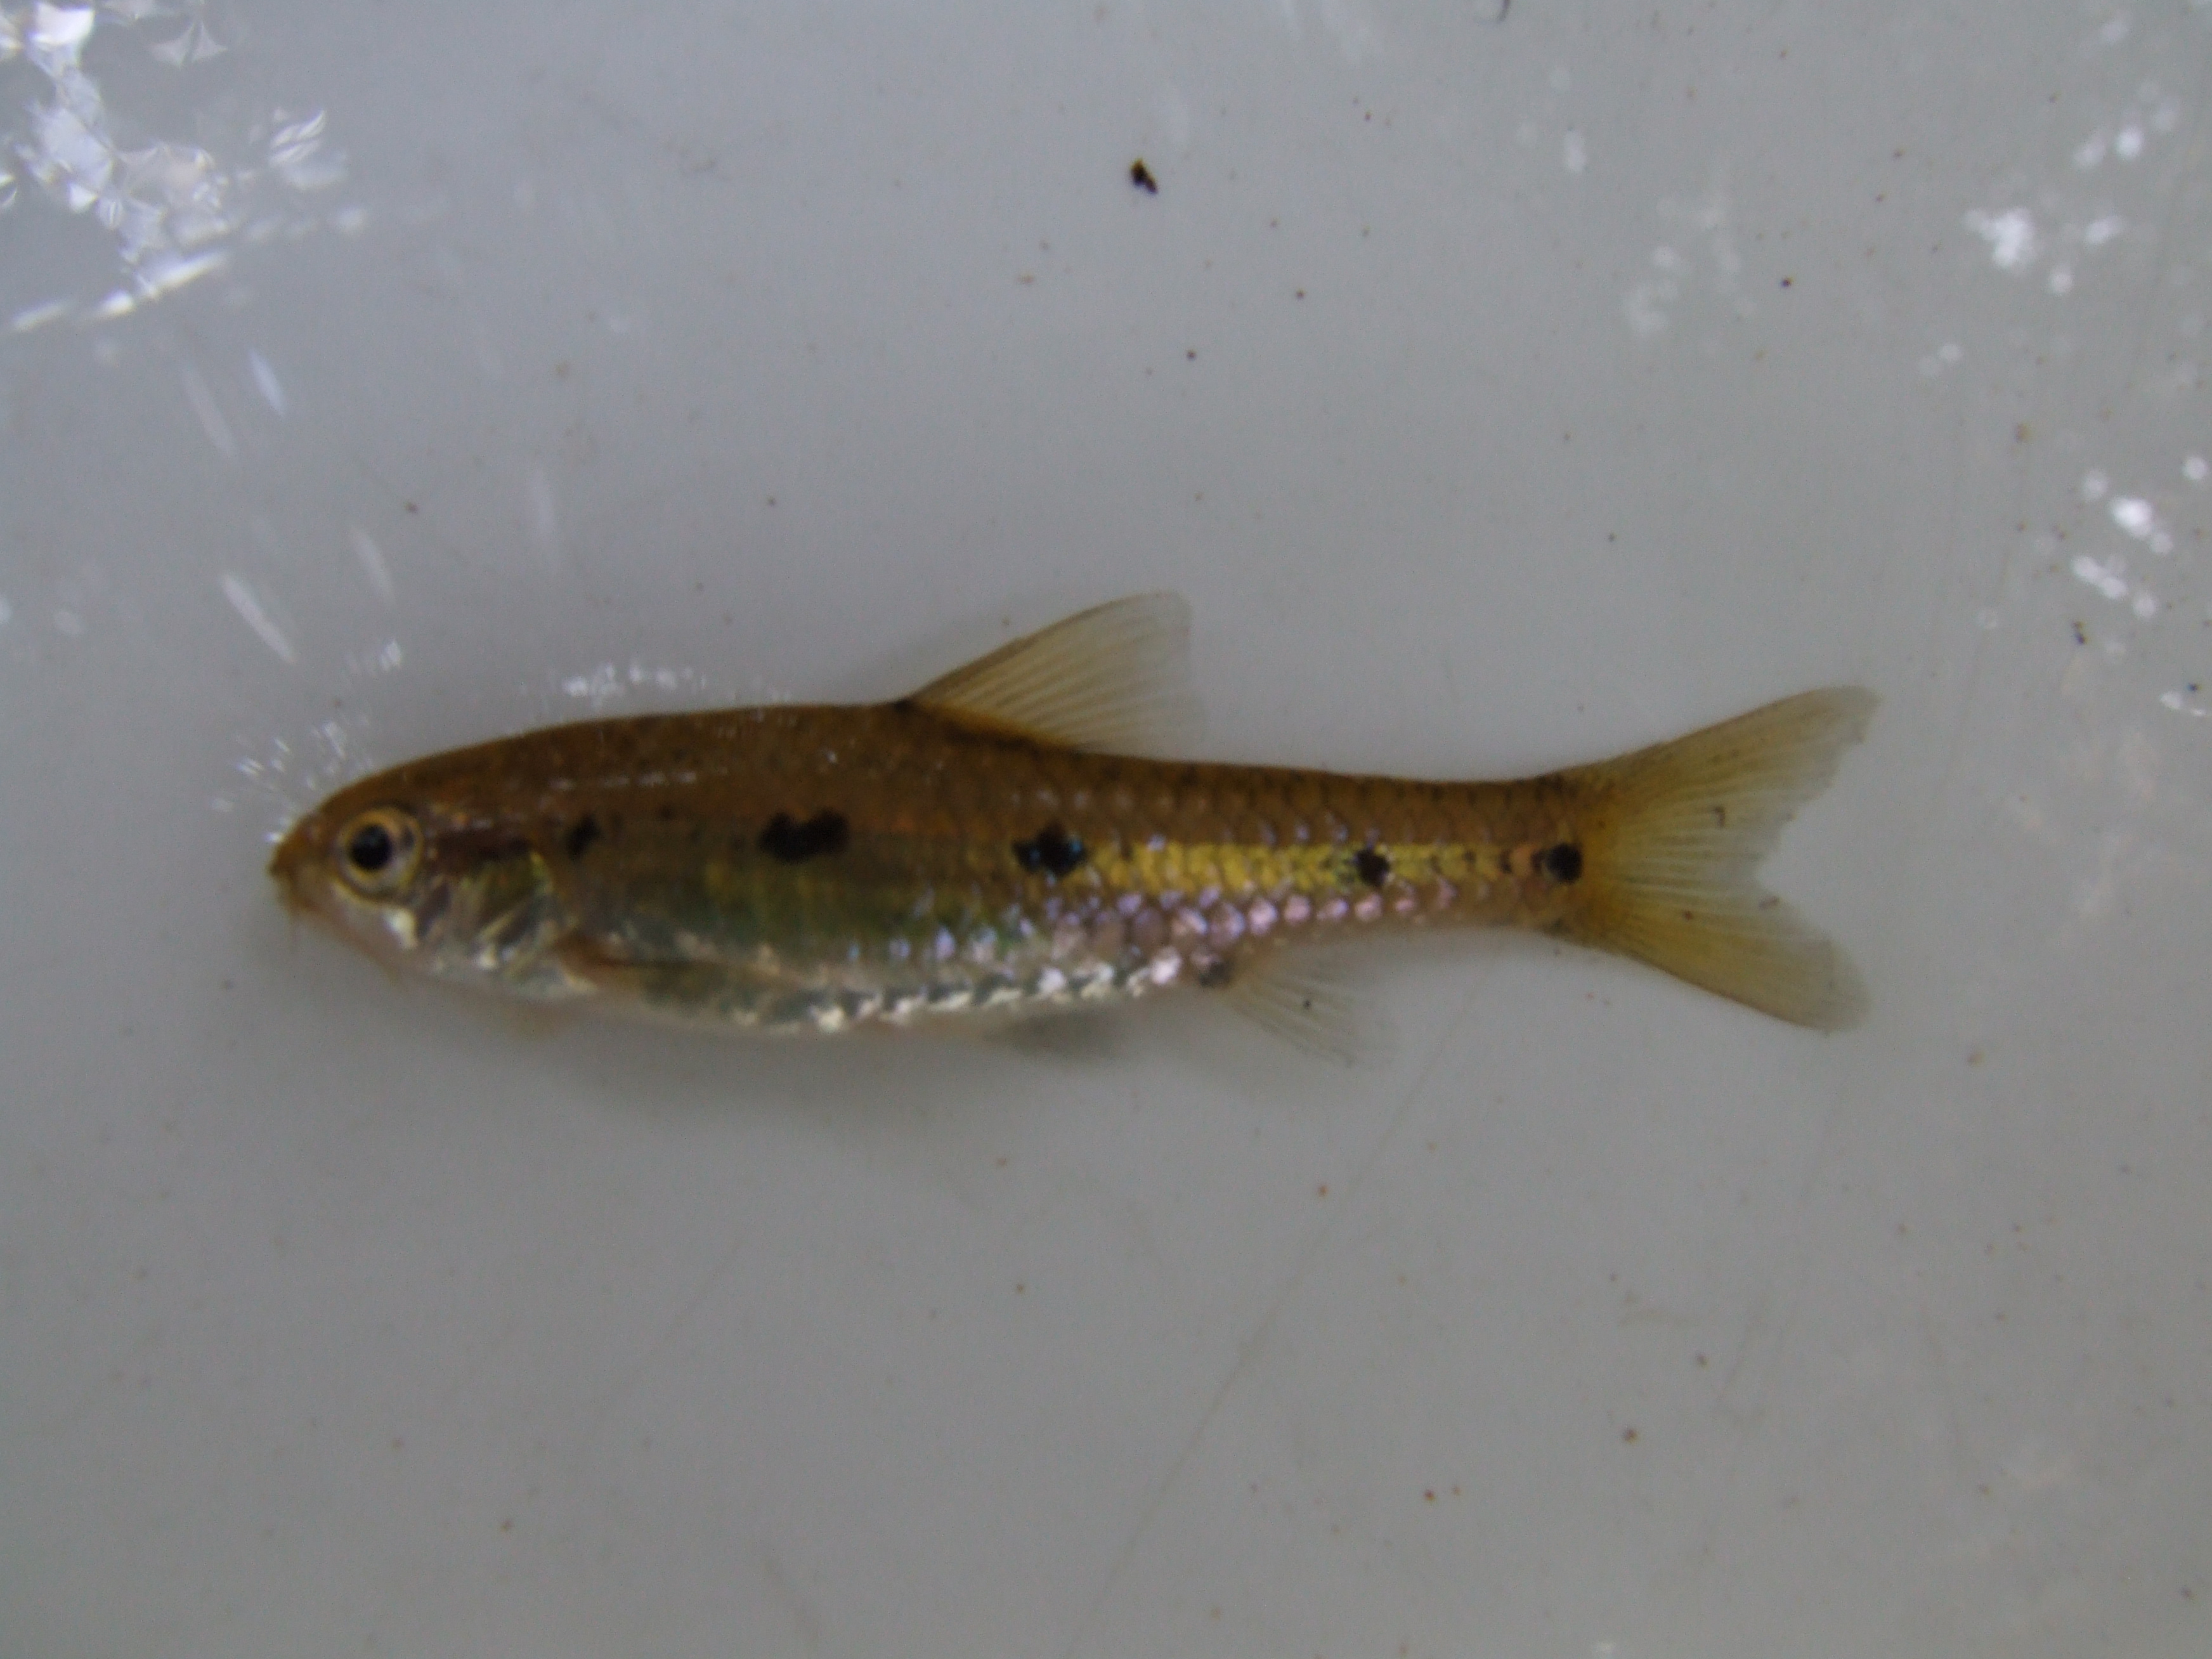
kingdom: Animalia
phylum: Chordata
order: Cypriniformes
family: Cyprinidae
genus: Enteromius
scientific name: Enteromius neefi
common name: Sidespot barb
